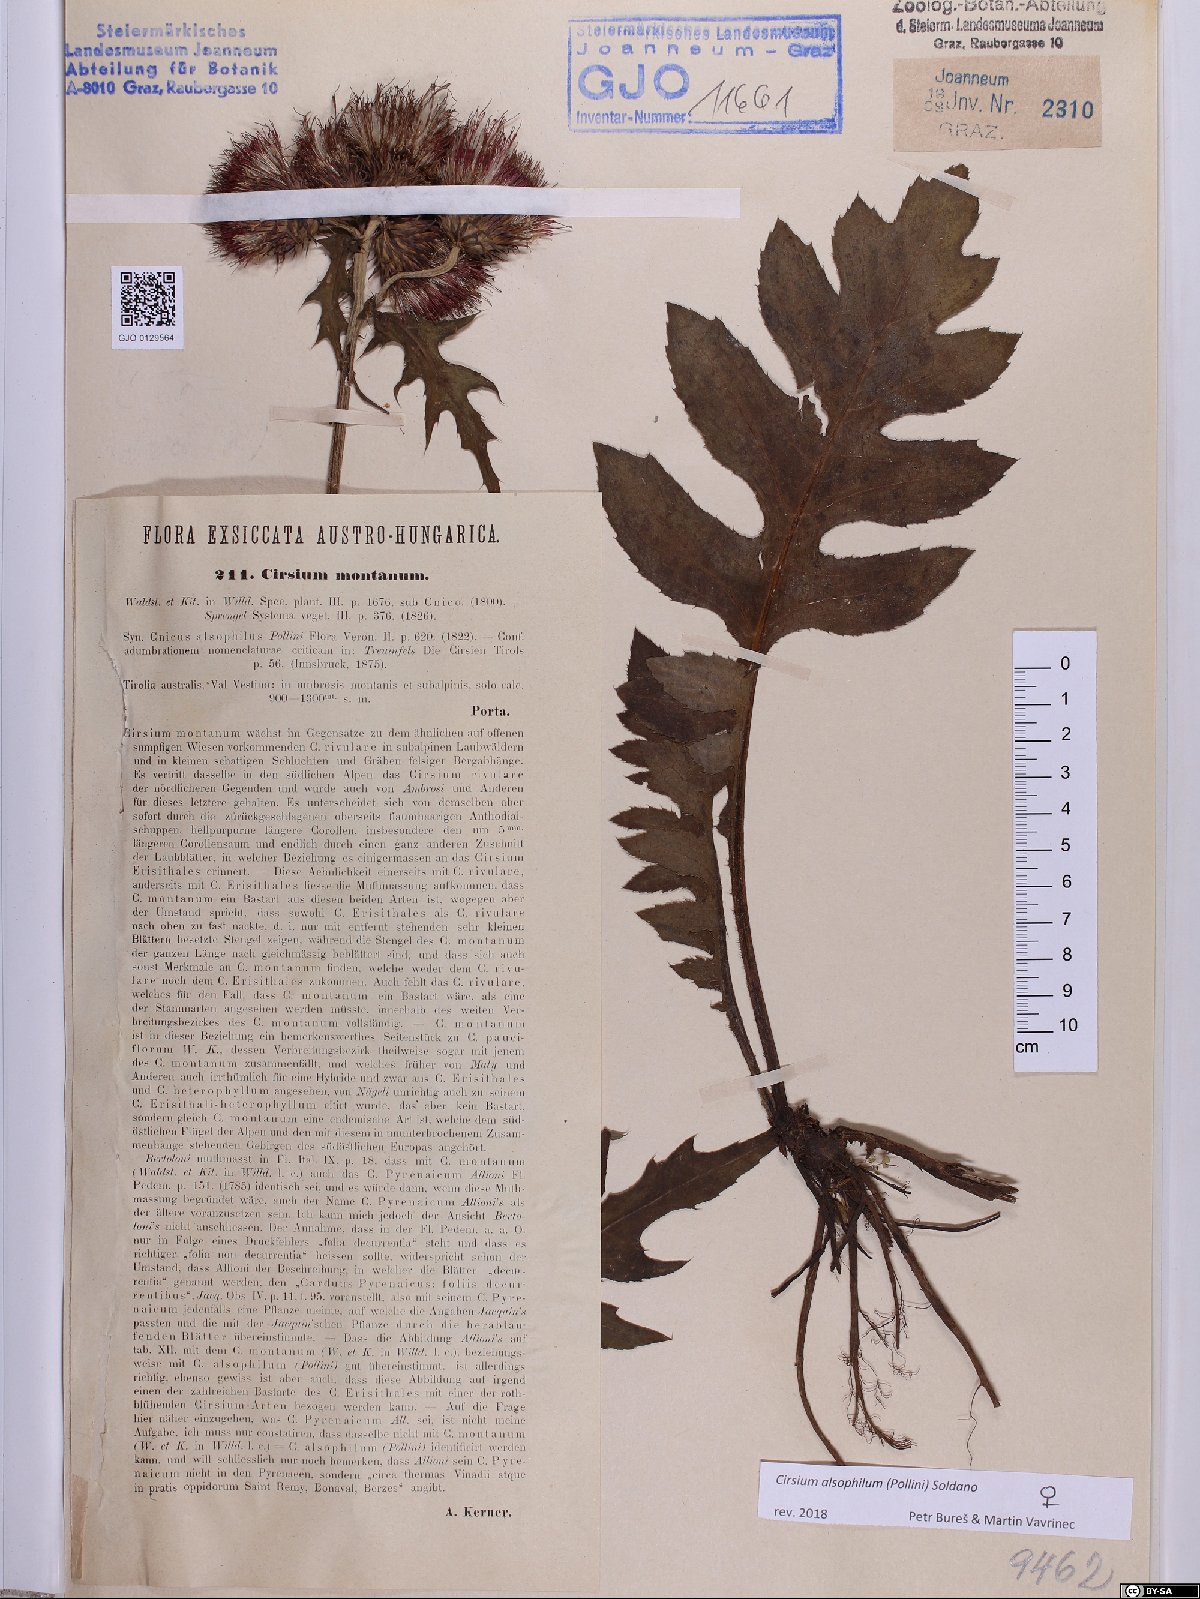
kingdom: Plantae
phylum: Tracheophyta
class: Magnoliopsida
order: Asterales
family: Asteraceae
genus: Cirsium
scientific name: Cirsium alsophilum
